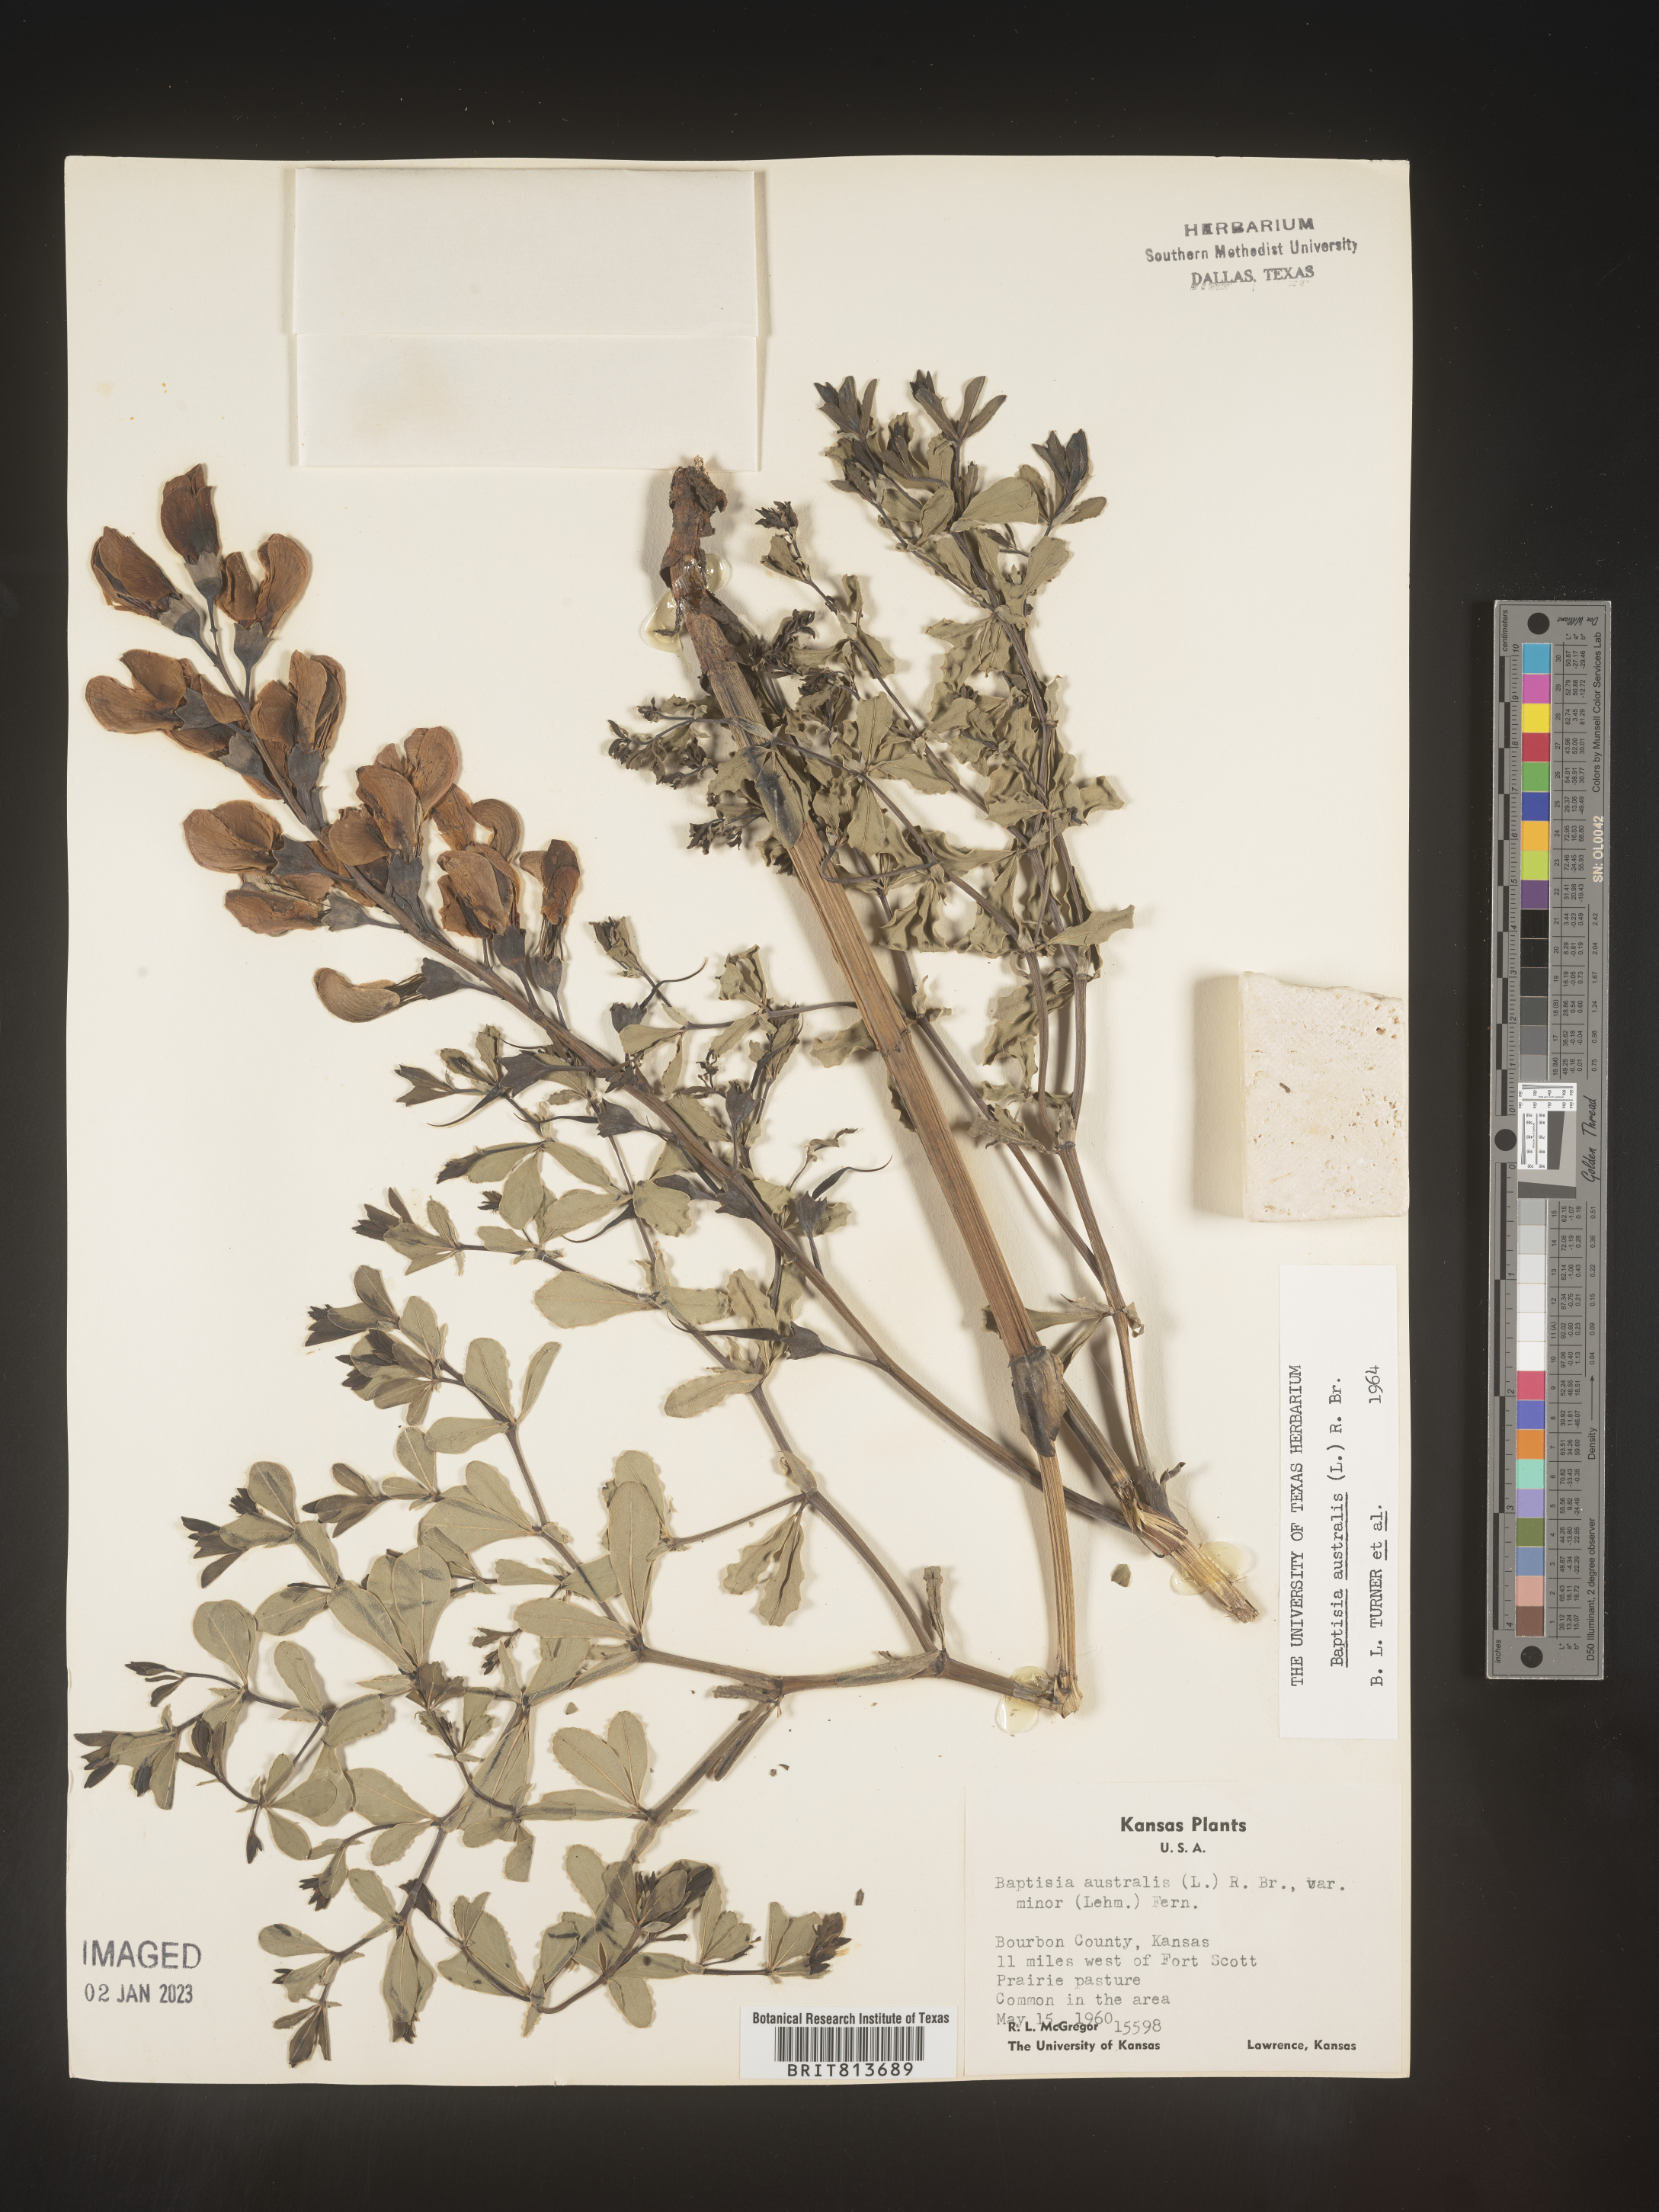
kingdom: Plantae
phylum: Tracheophyta
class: Magnoliopsida
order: Fabales
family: Fabaceae
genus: Baptisia
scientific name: Baptisia australis
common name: Blue false indigo
